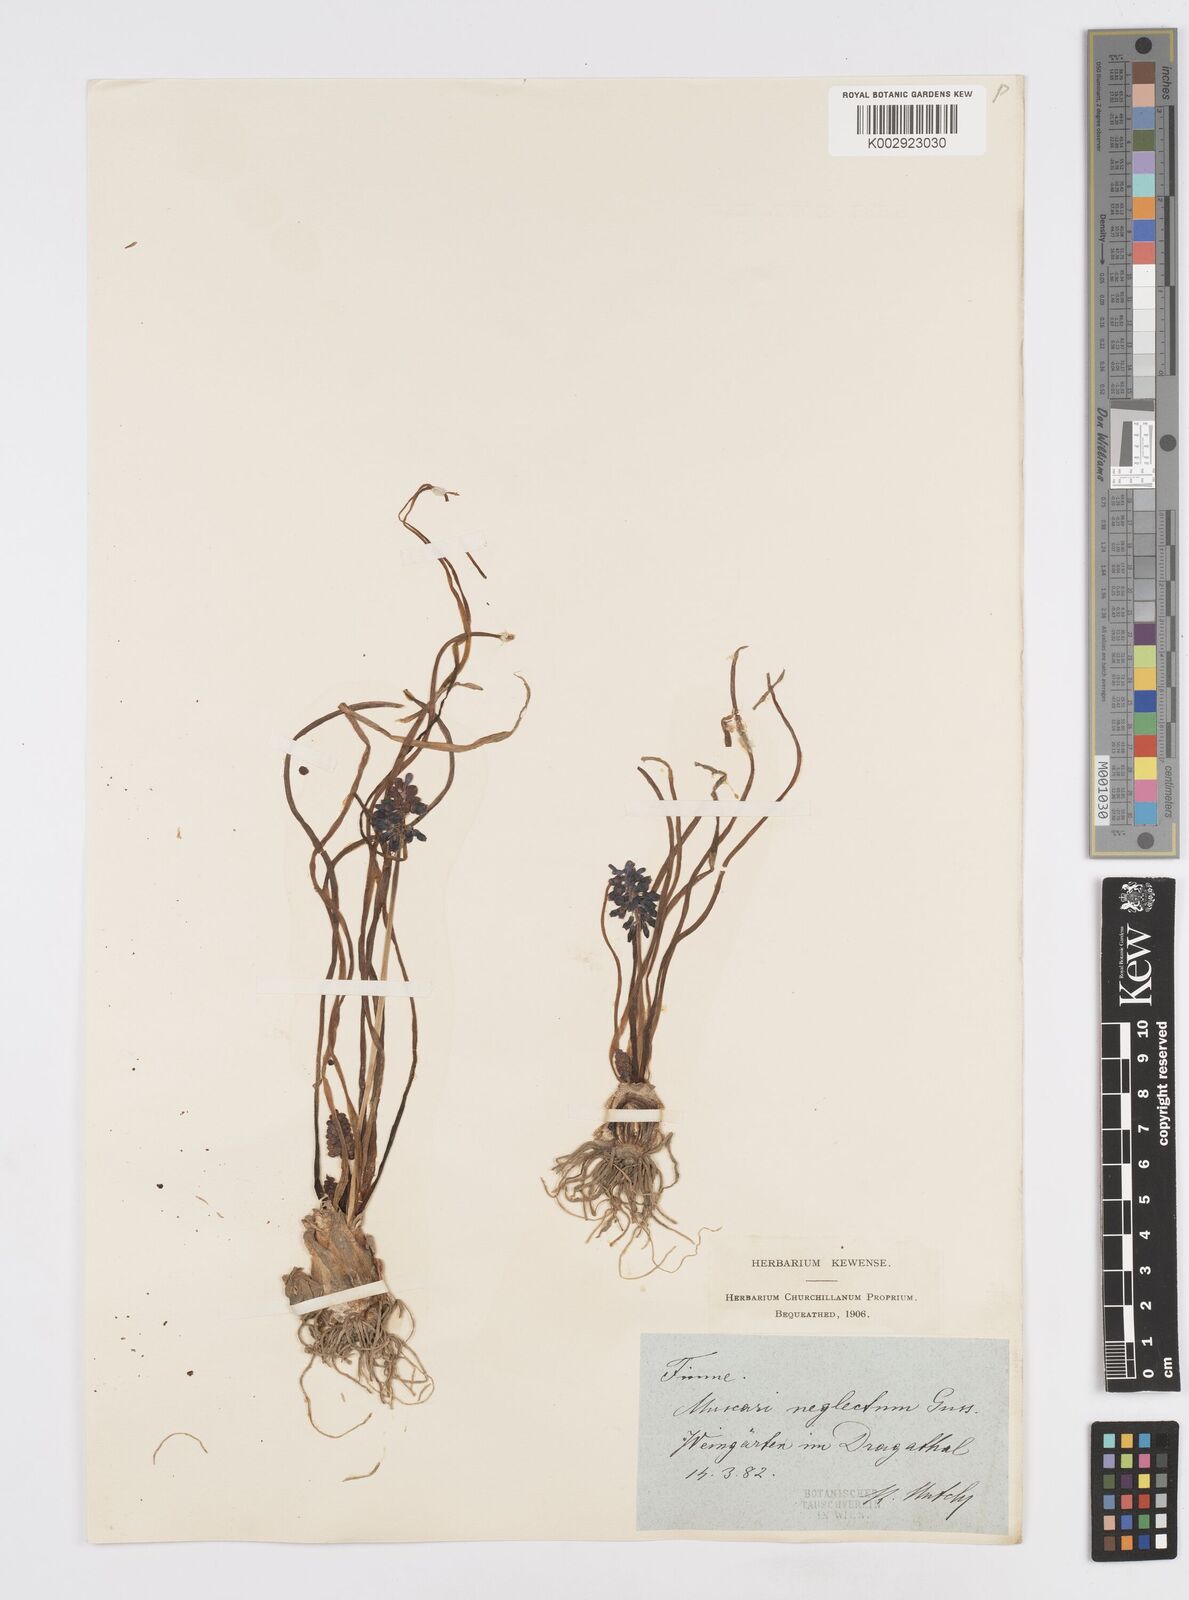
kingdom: Plantae
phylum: Tracheophyta
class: Liliopsida
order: Asparagales
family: Asparagaceae
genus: Muscari
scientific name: Muscari neglectum
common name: Grape-hyacinth
